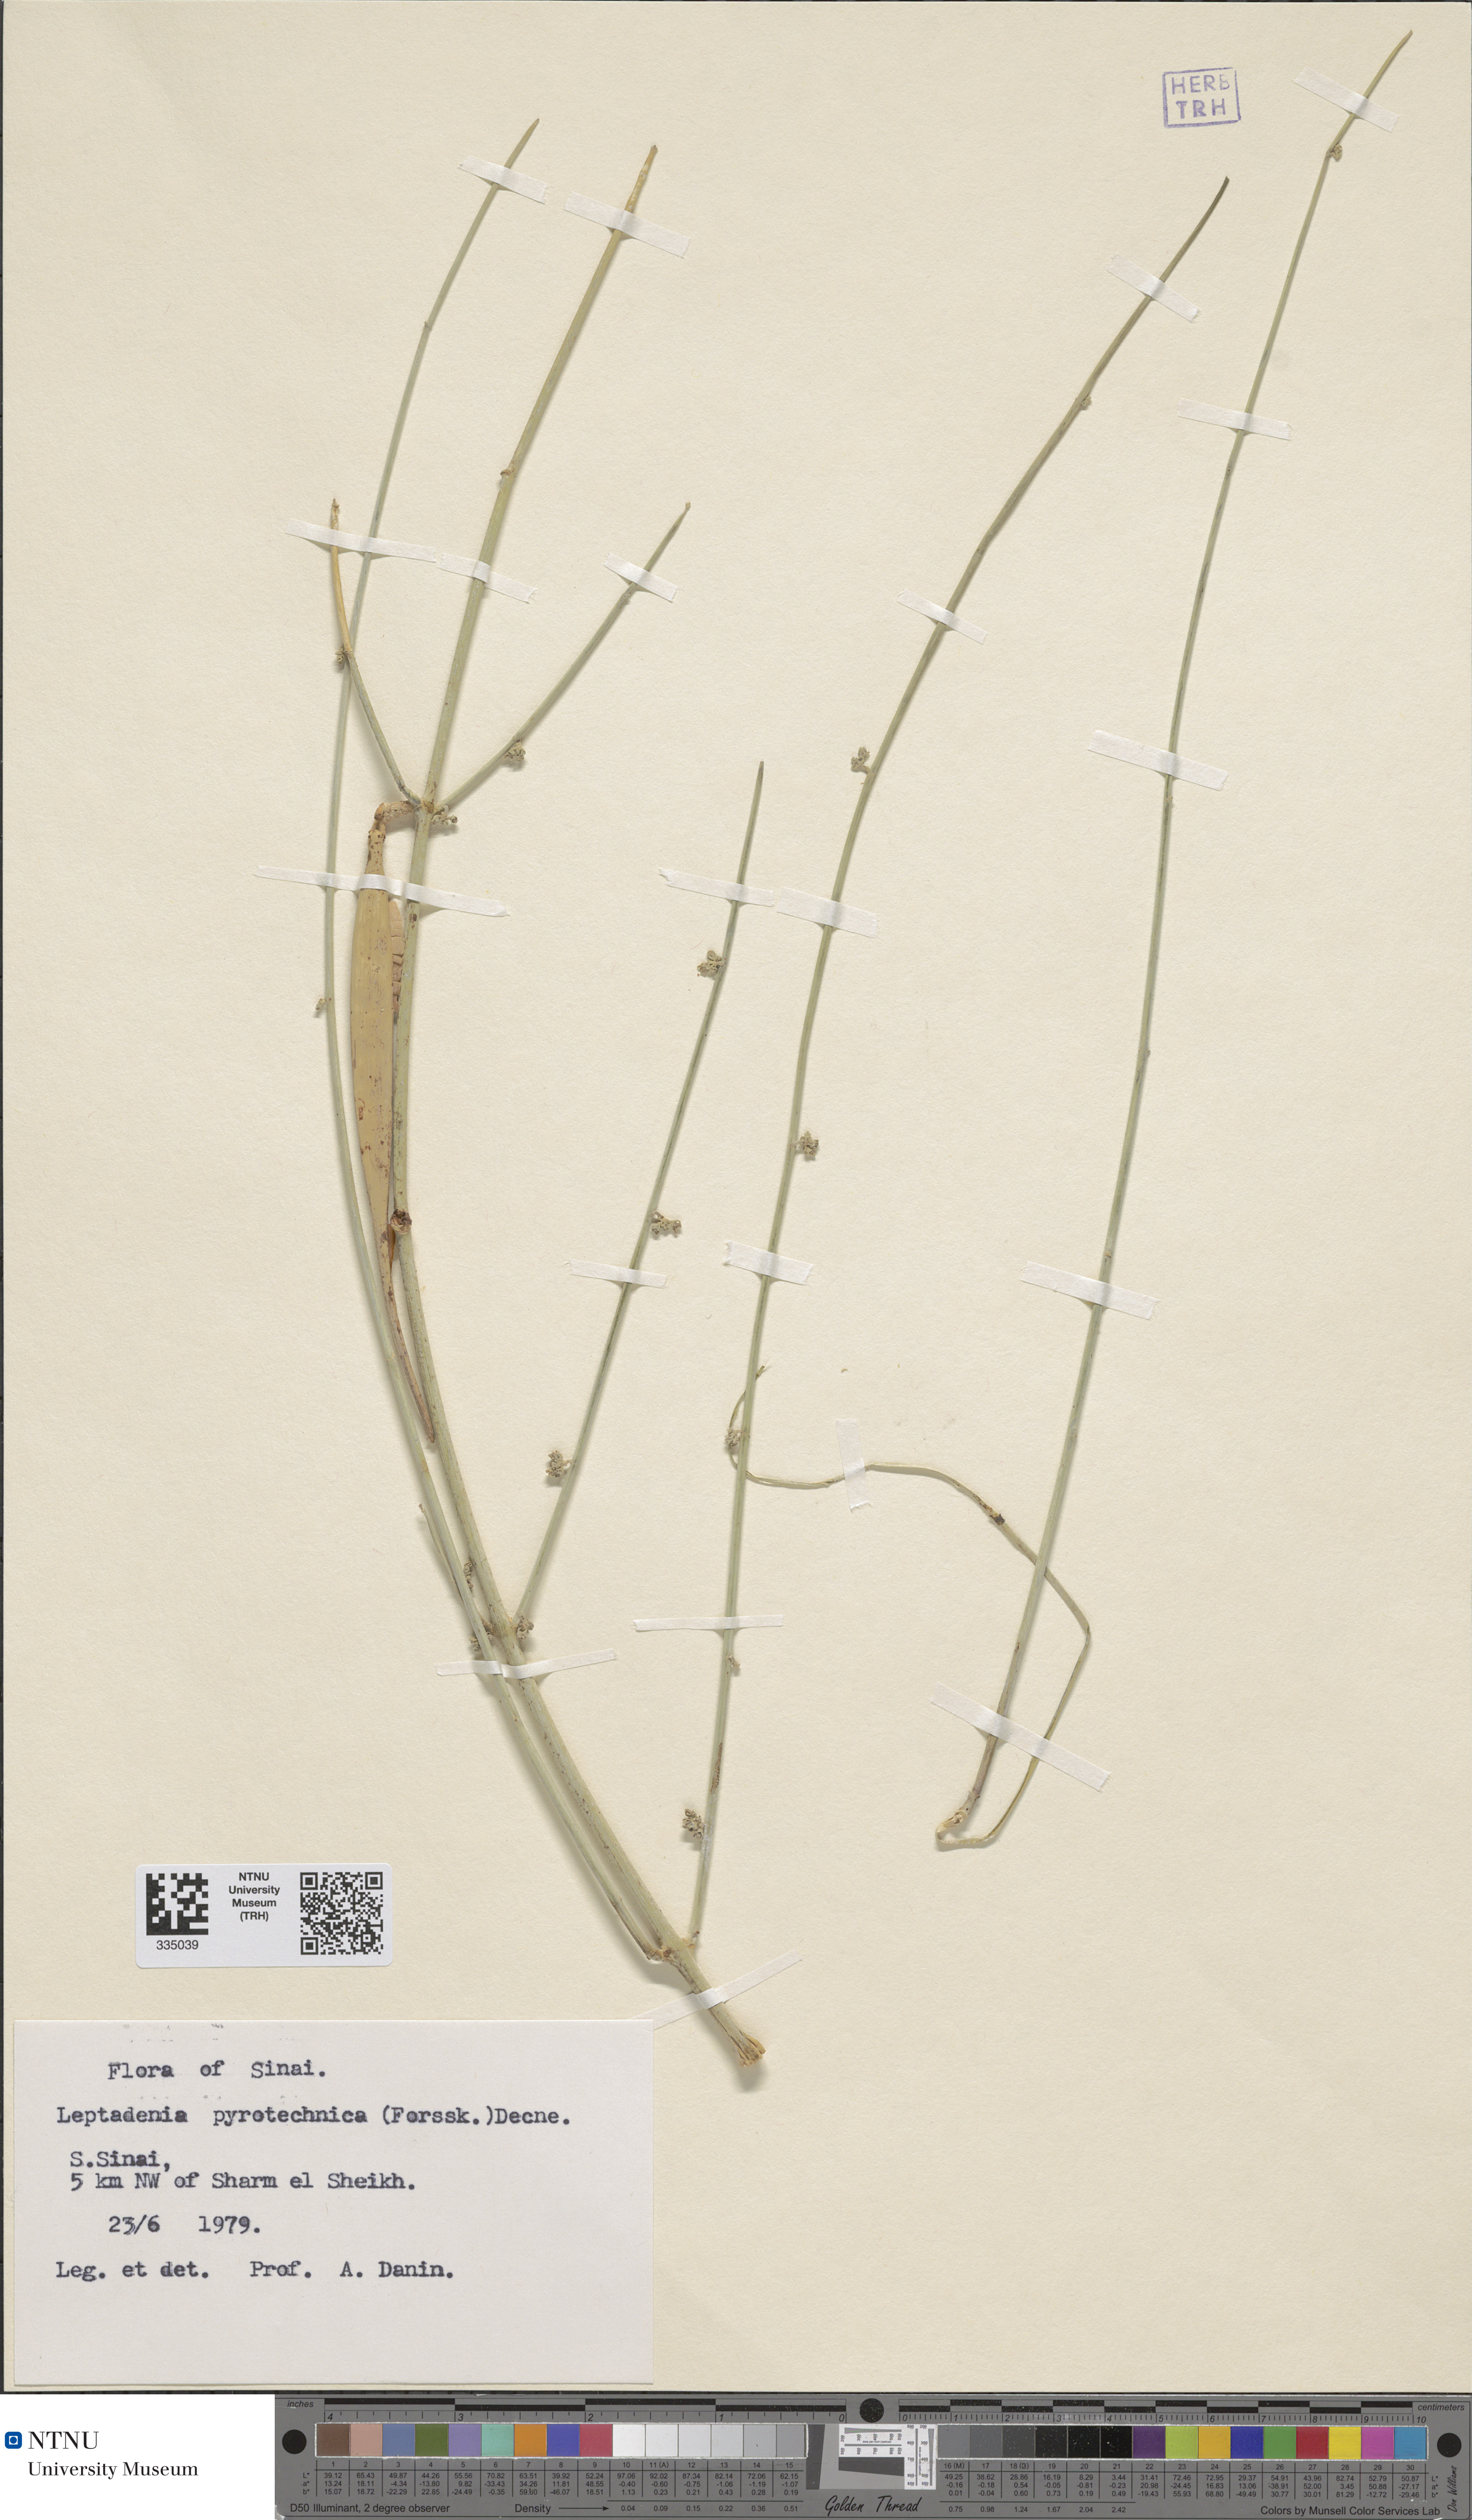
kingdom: Plantae
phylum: Tracheophyta
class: Magnoliopsida
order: Gentianales
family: Apocynaceae
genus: Leptadenia
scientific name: Leptadenia pyrotechnica
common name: Broom brush
